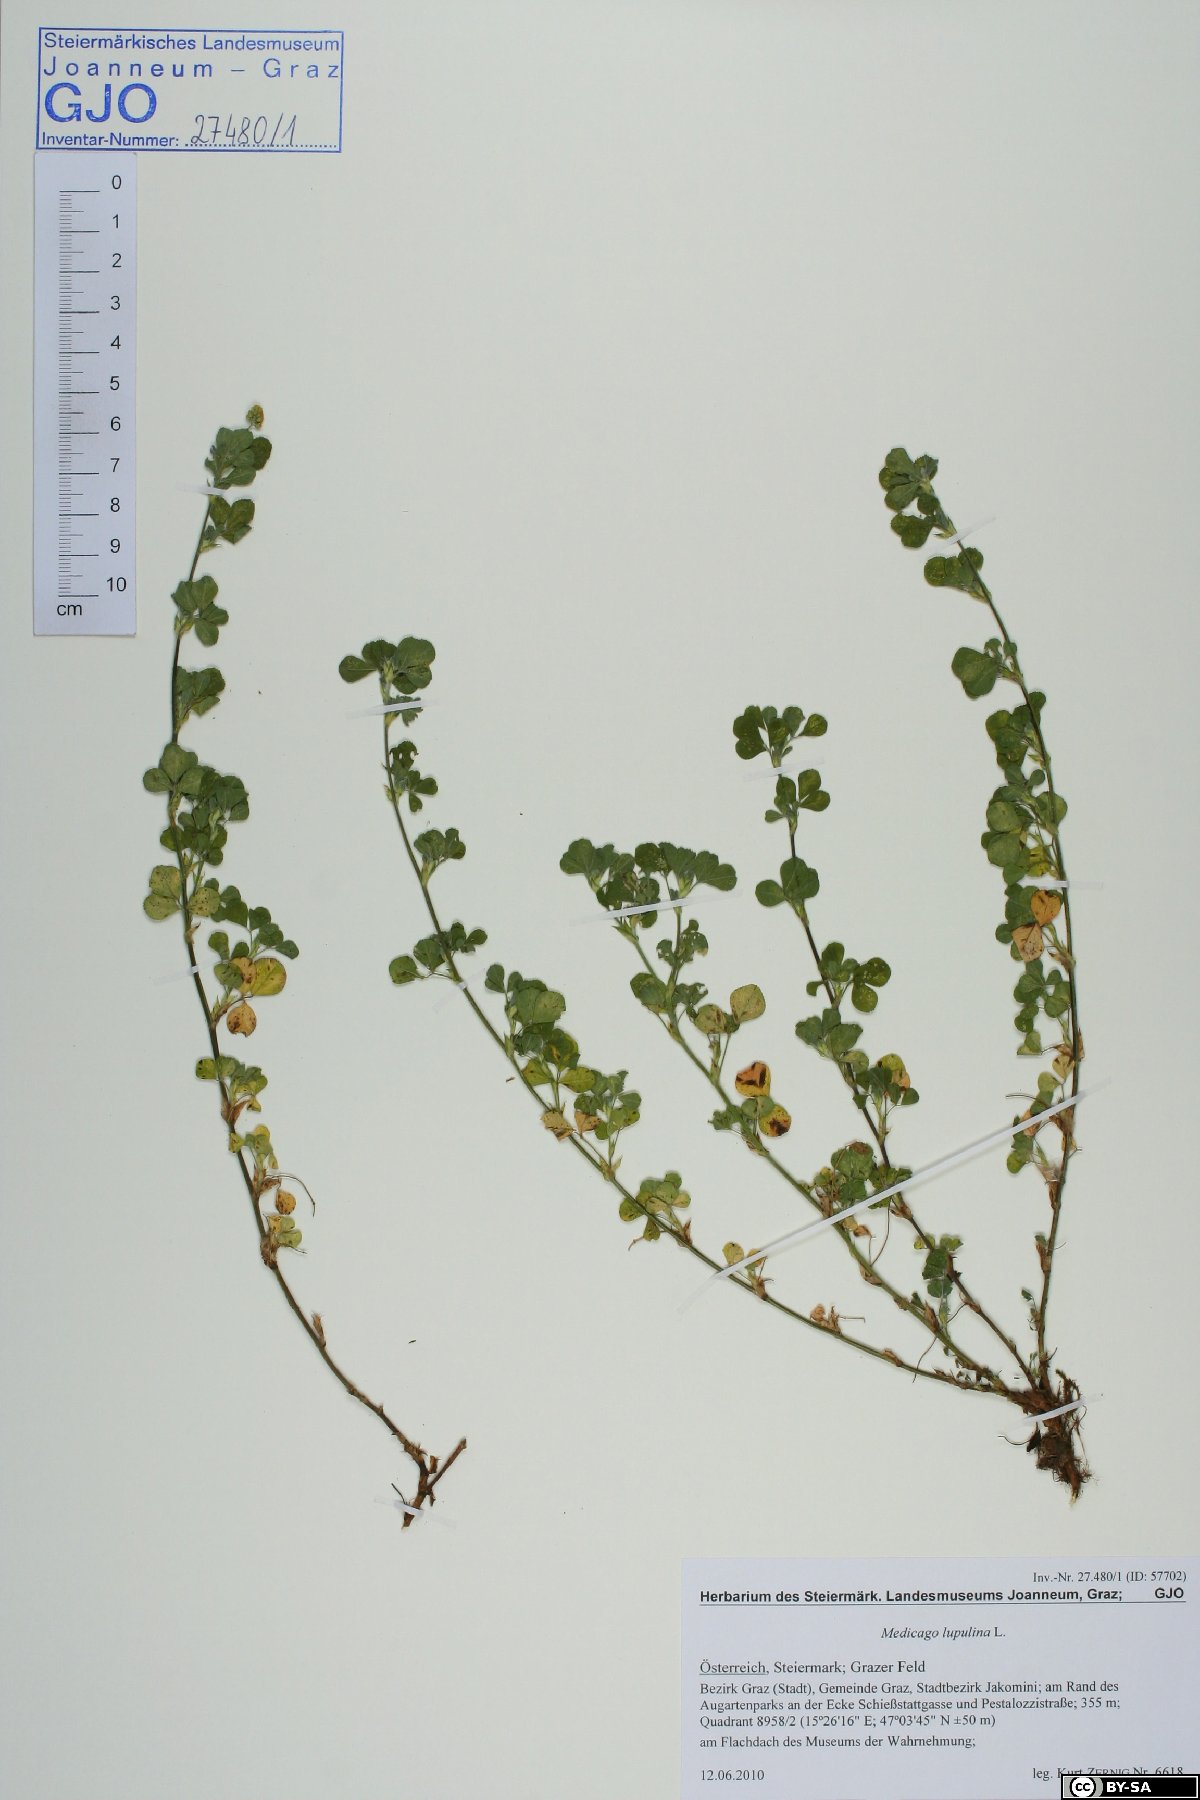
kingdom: Plantae
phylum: Tracheophyta
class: Magnoliopsida
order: Fabales
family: Fabaceae
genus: Medicago
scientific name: Medicago lupulina
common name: Black medick
